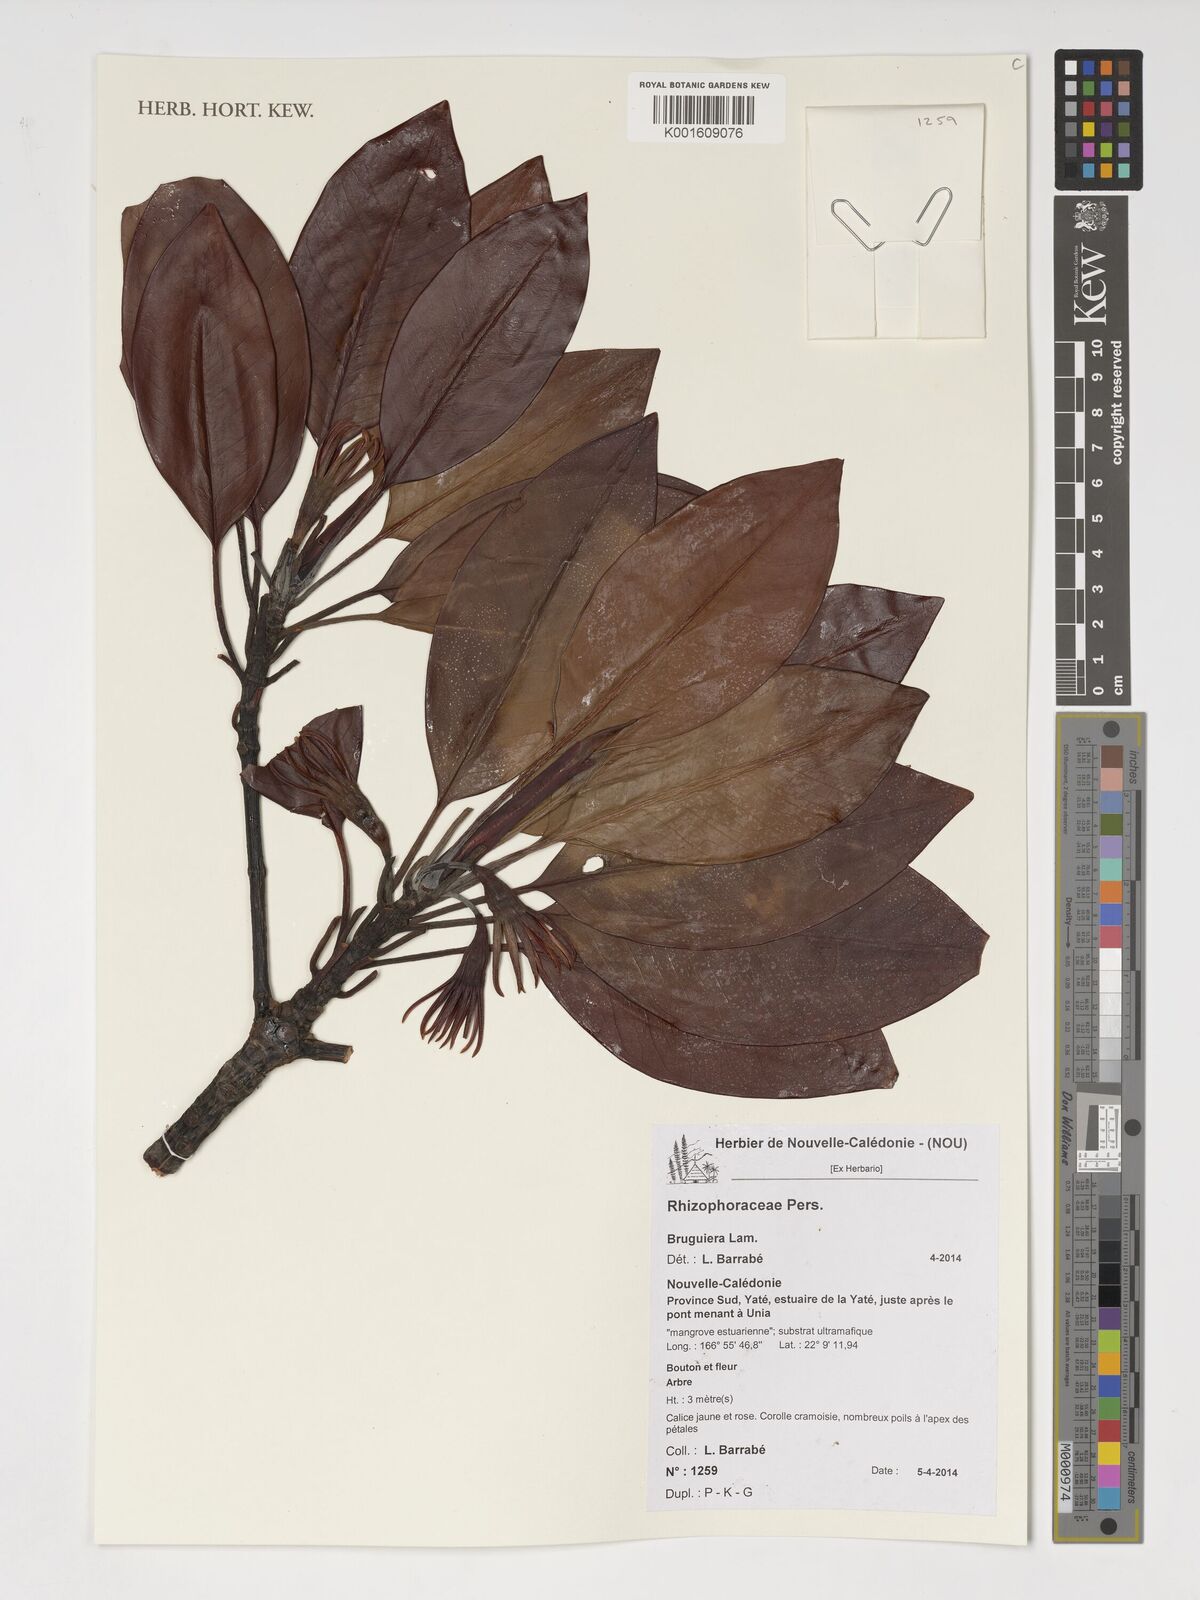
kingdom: Plantae
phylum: Tracheophyta
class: Magnoliopsida
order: Malpighiales
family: Rhizophoraceae
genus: Bruguiera
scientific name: Bruguiera
